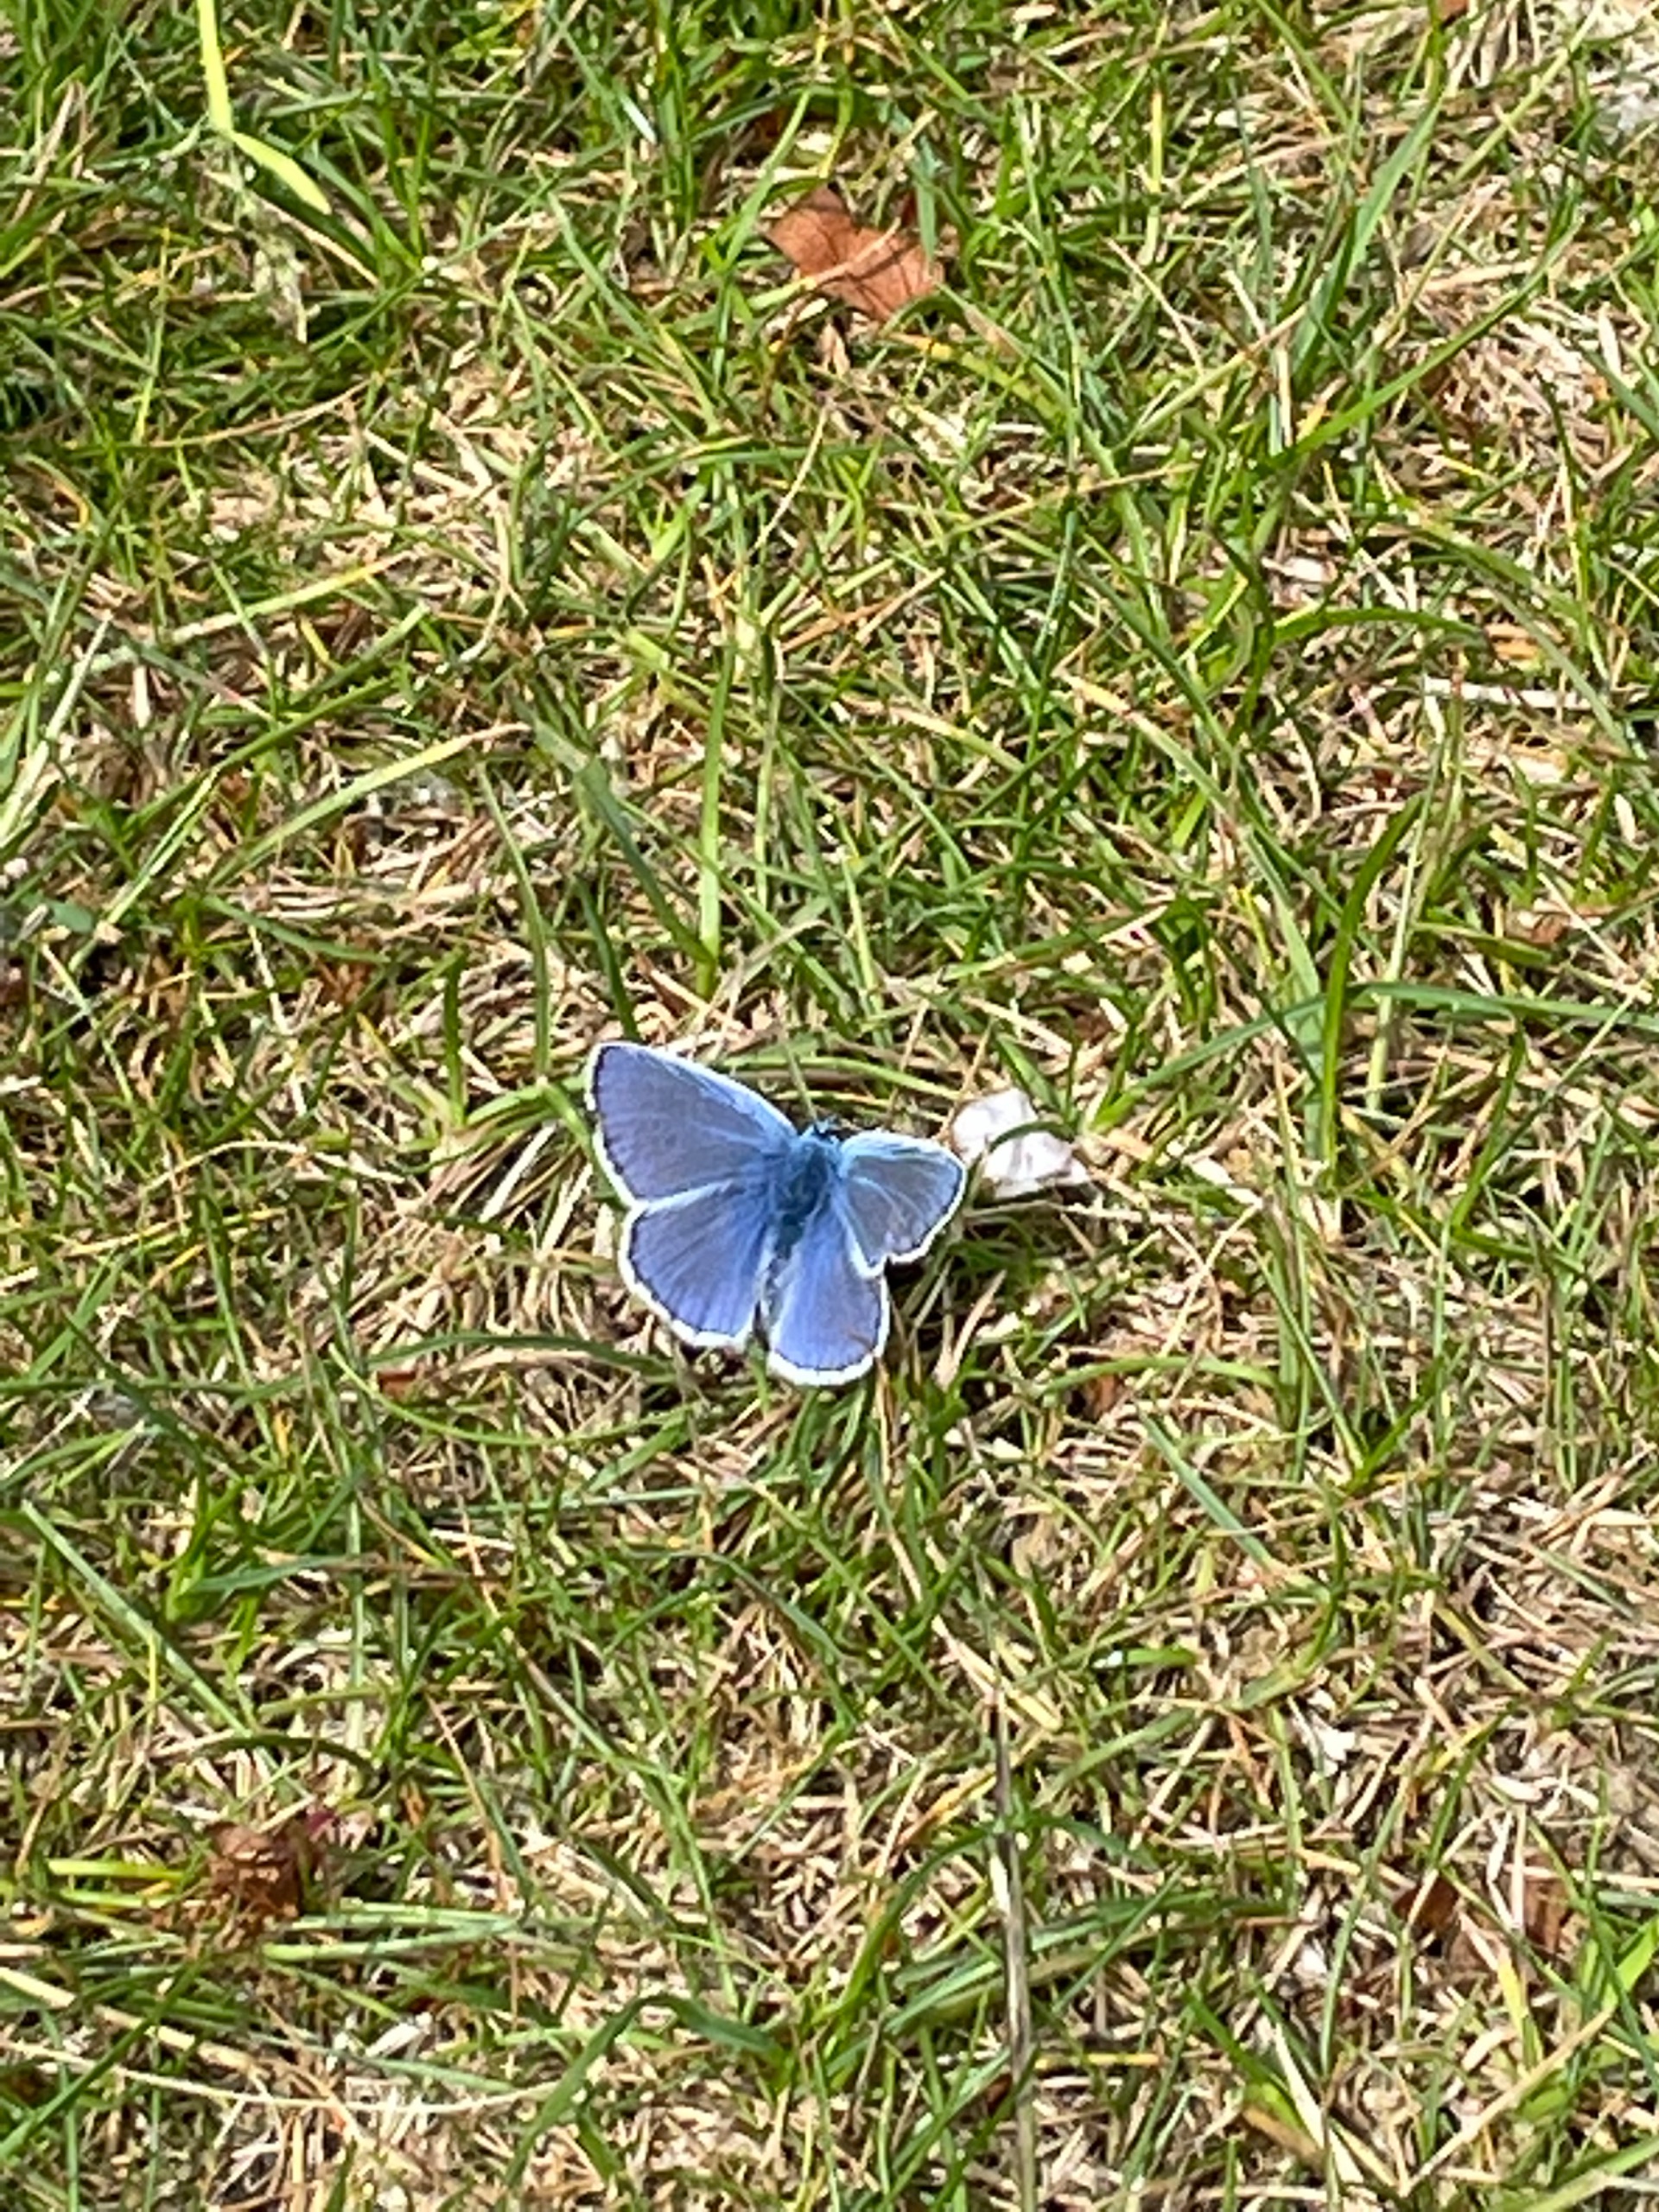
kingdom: Animalia
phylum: Arthropoda
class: Insecta
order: Lepidoptera
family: Lycaenidae
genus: Polyommatus
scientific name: Polyommatus icarus
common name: Almindelig blåfugl
